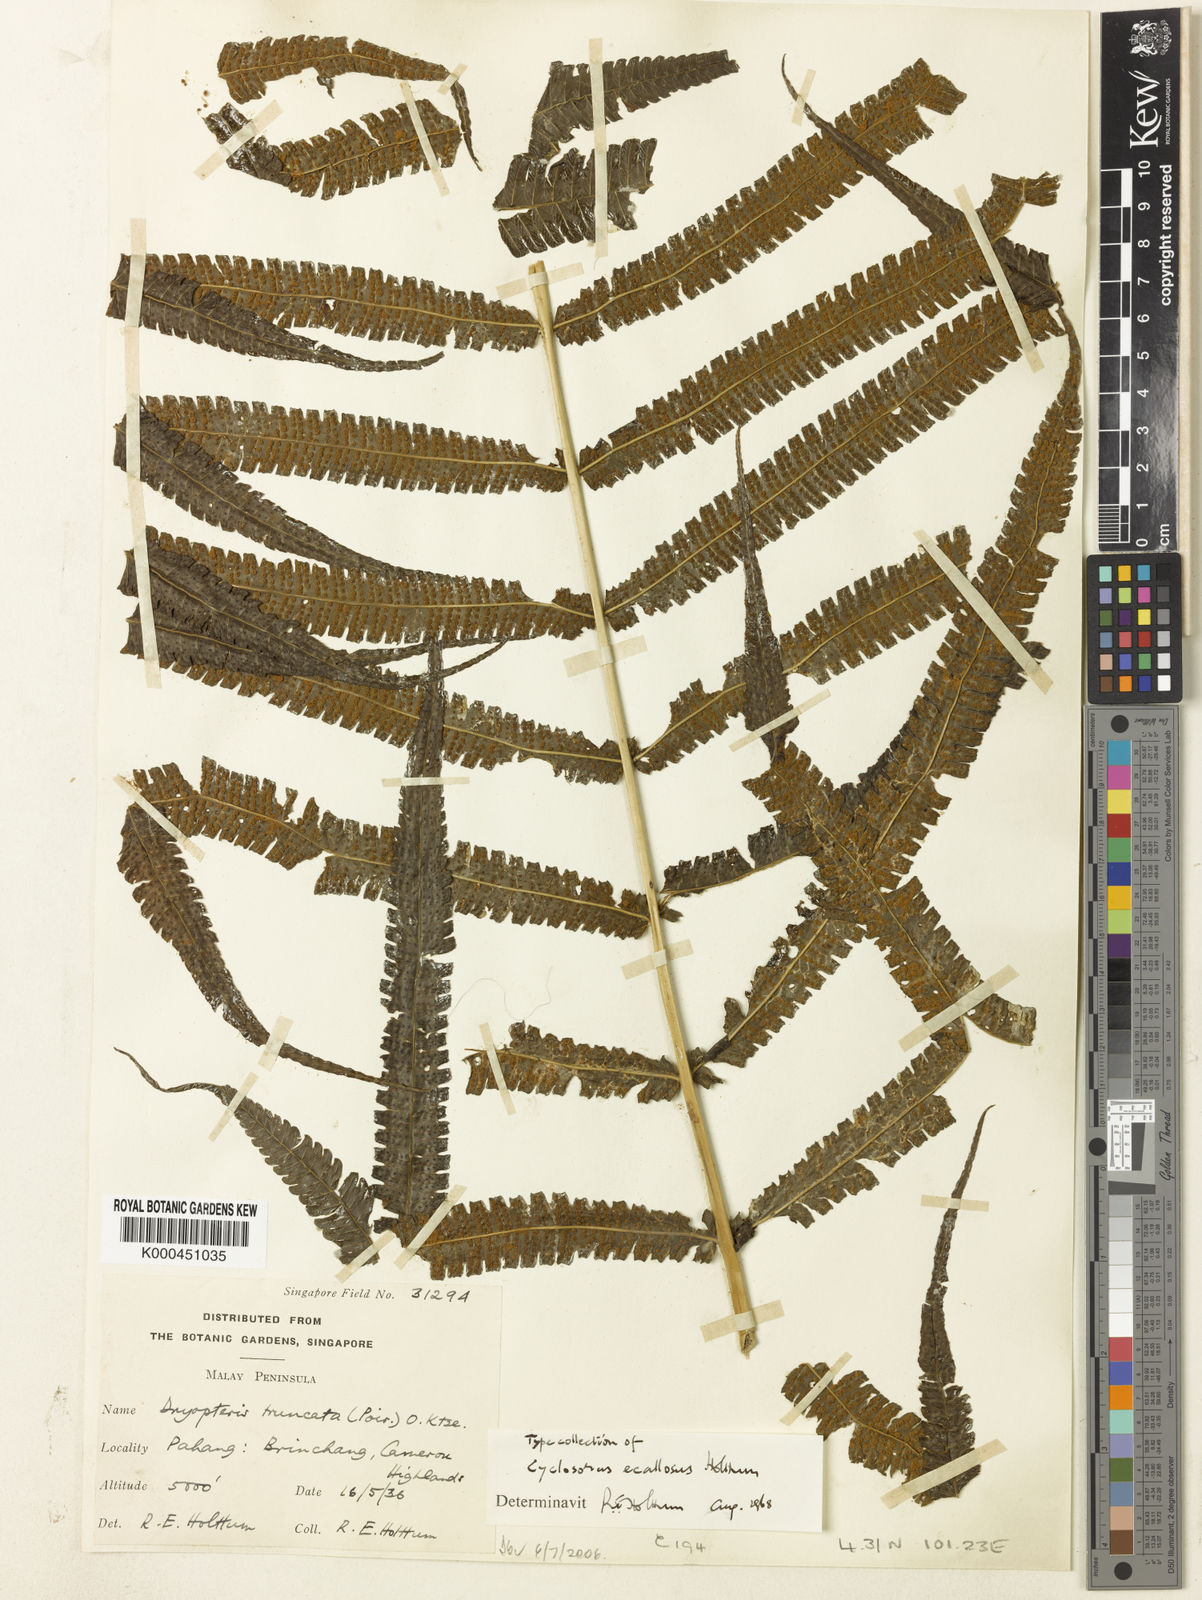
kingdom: Plantae
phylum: Tracheophyta
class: Polypodiopsida
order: Polypodiales
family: Thelypteridaceae
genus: Reholttumia
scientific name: Reholttumia ecallosa
